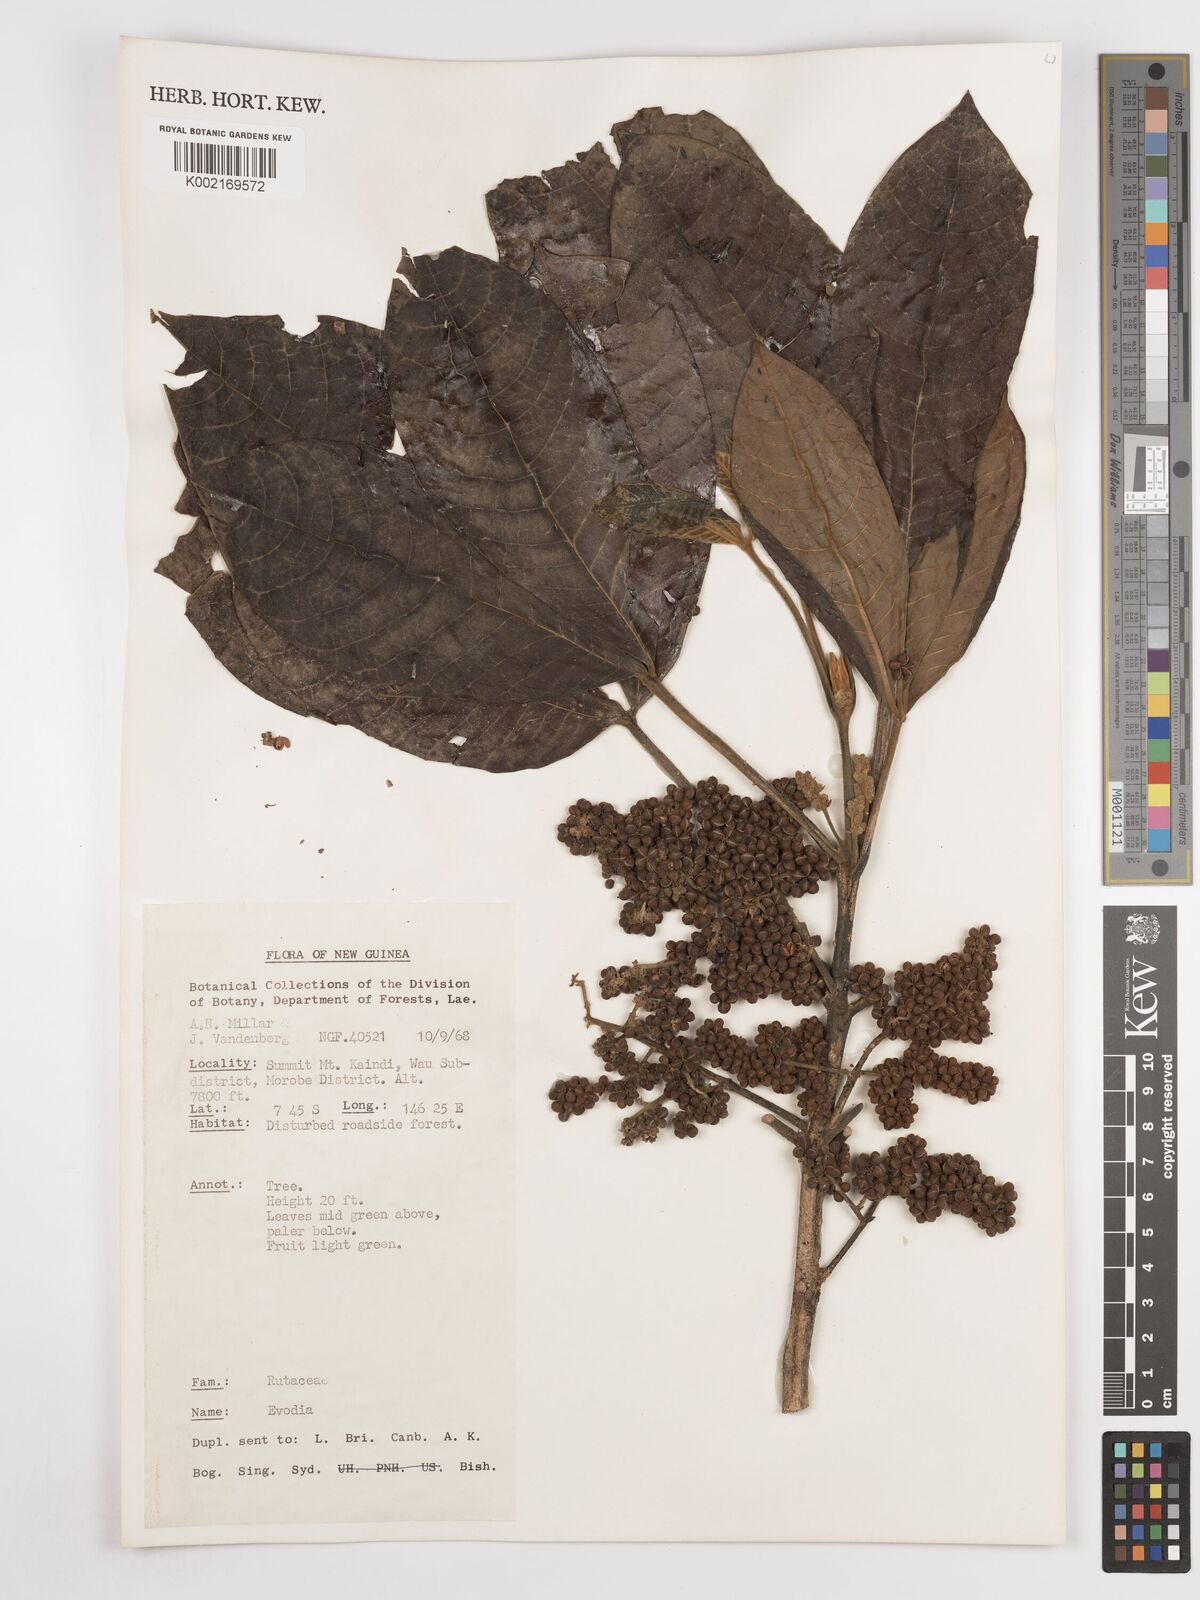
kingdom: Plantae
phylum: Tracheophyta
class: Magnoliopsida
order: Sapindales
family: Rutaceae
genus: Euodia
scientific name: Euodia
